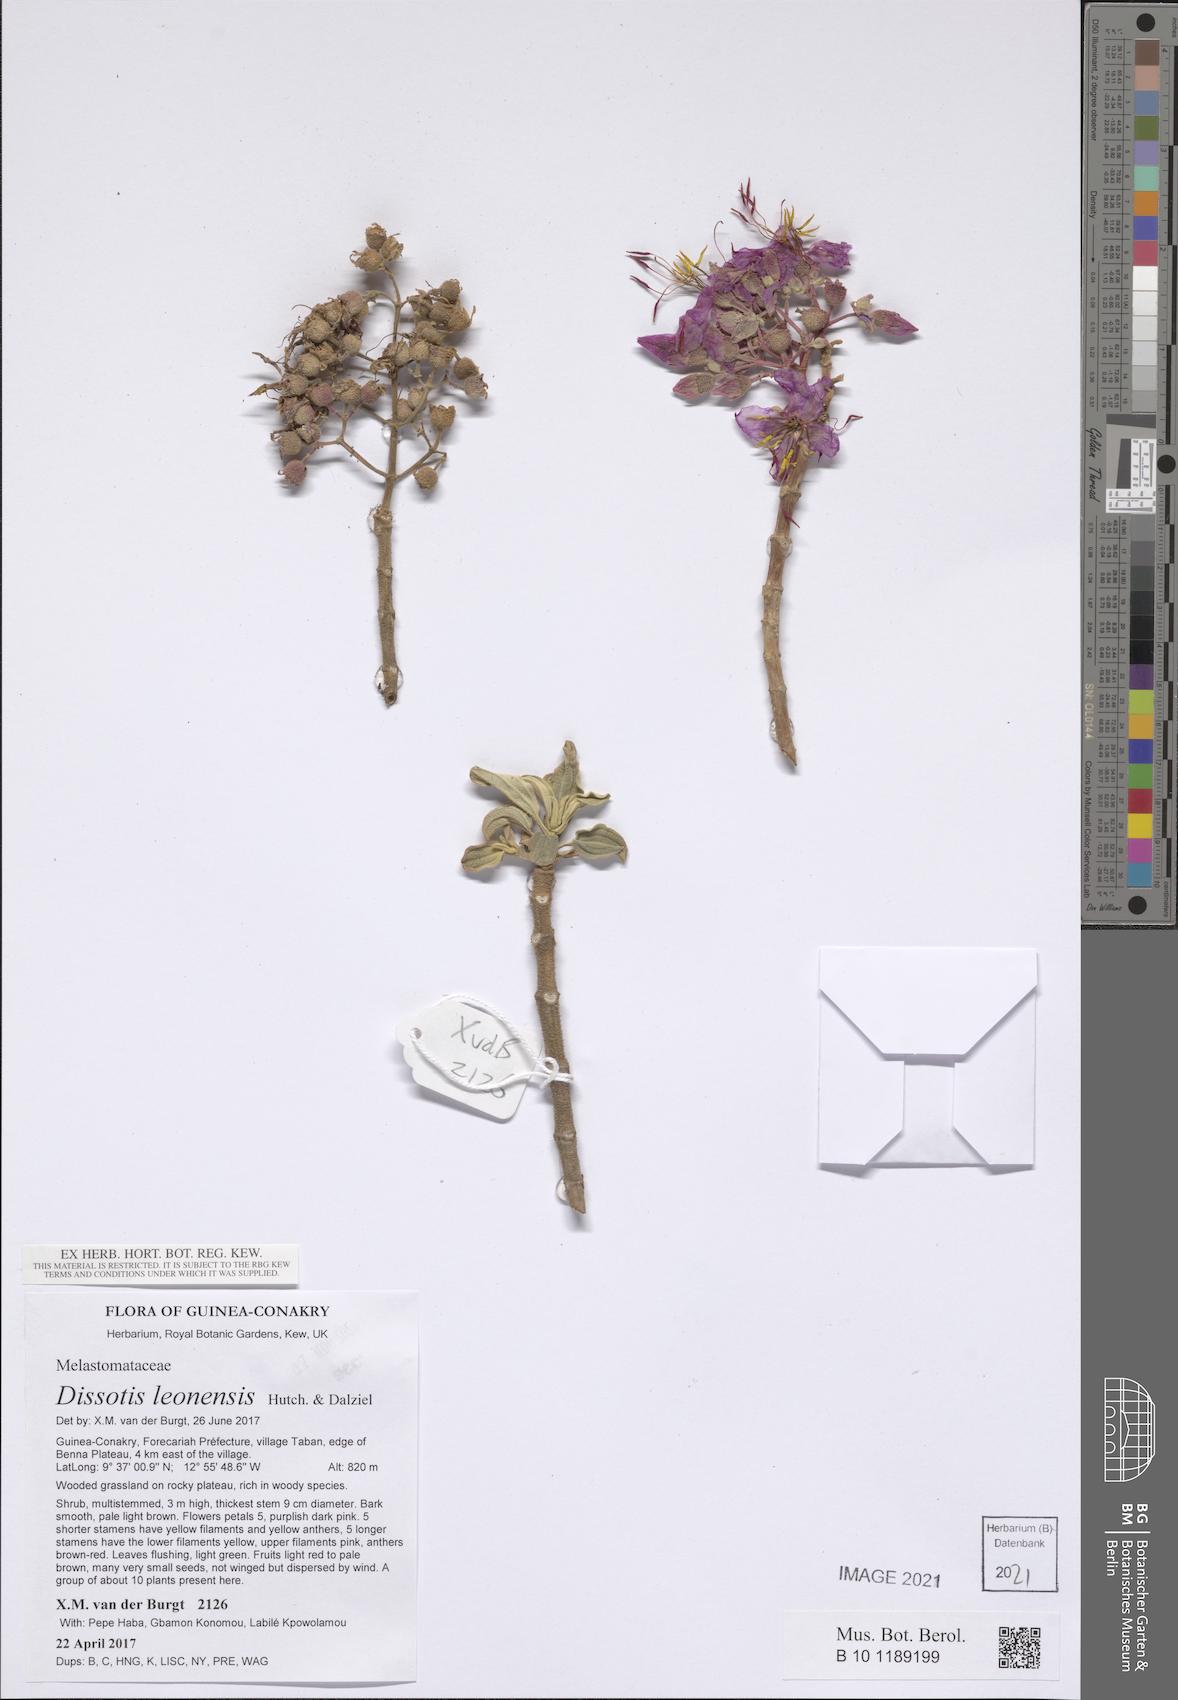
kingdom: Plantae
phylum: Tracheophyta
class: Magnoliopsida
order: Myrtales
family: Melastomataceae
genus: Dissotis
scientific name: Dissotis leonensis
